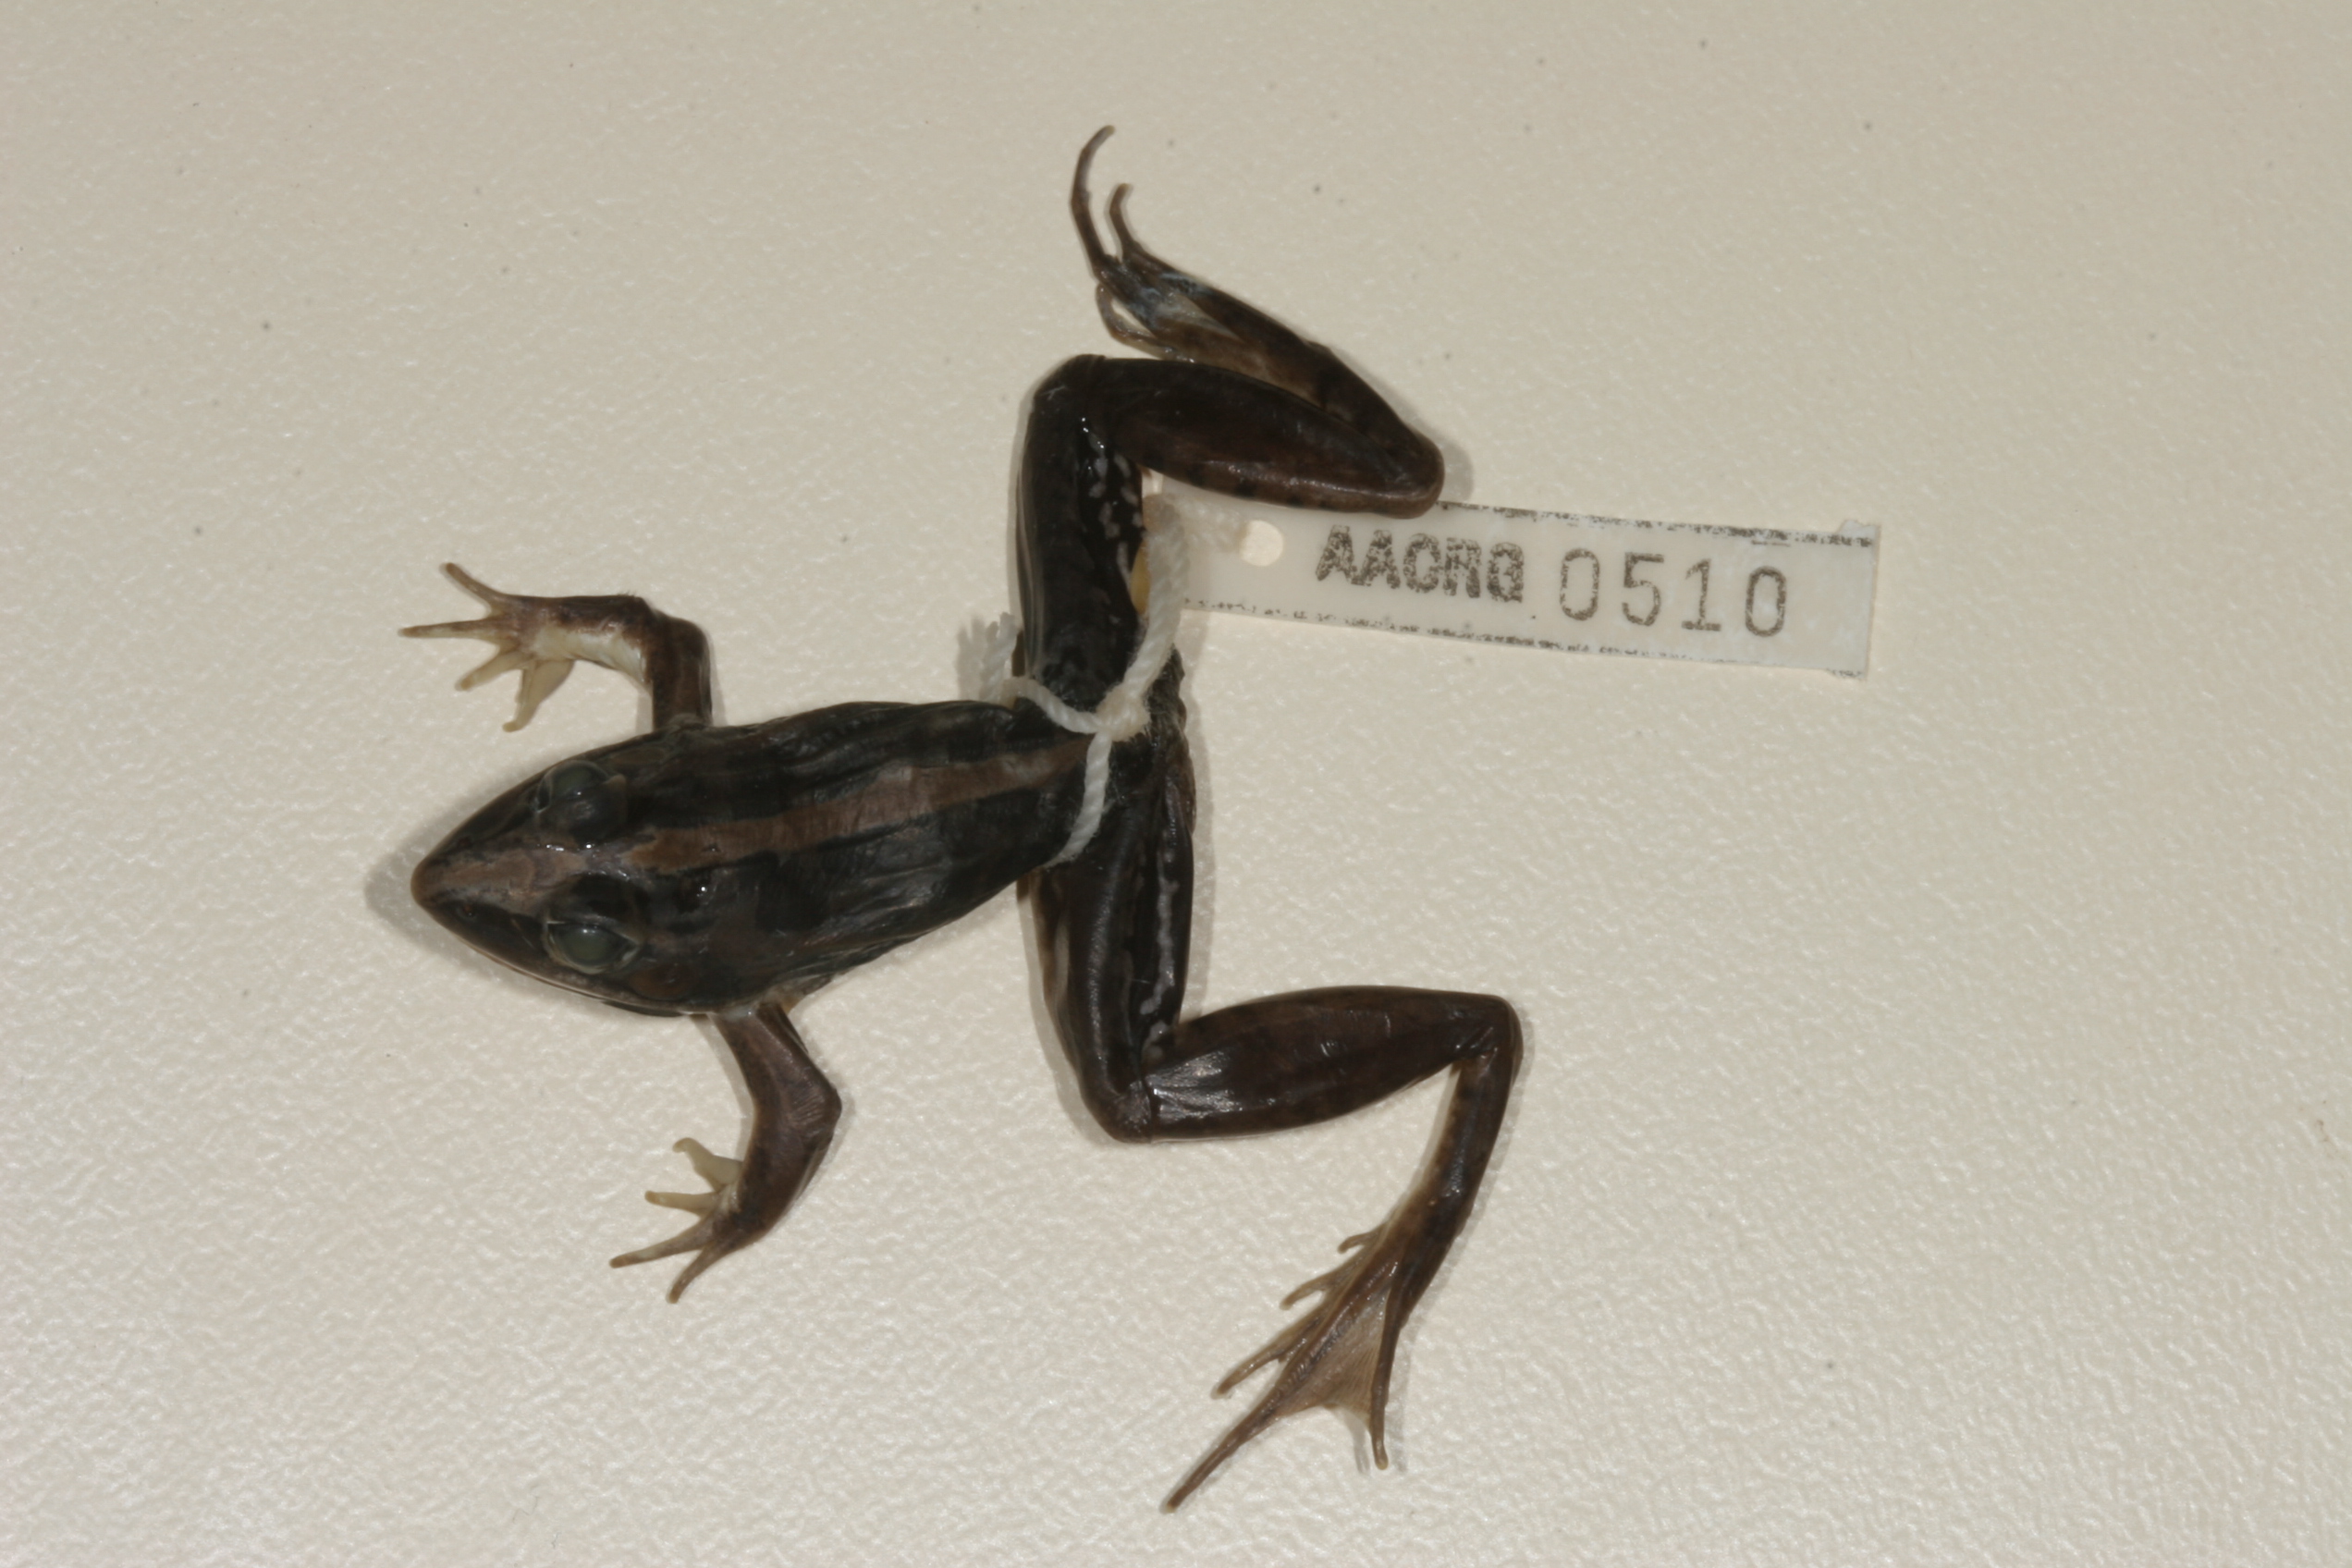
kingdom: Animalia
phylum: Chordata
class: Amphibia
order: Anura
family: Ptychadenidae
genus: Ptychadena
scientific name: Ptychadena mascareniensis
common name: Mascarene grass frog
